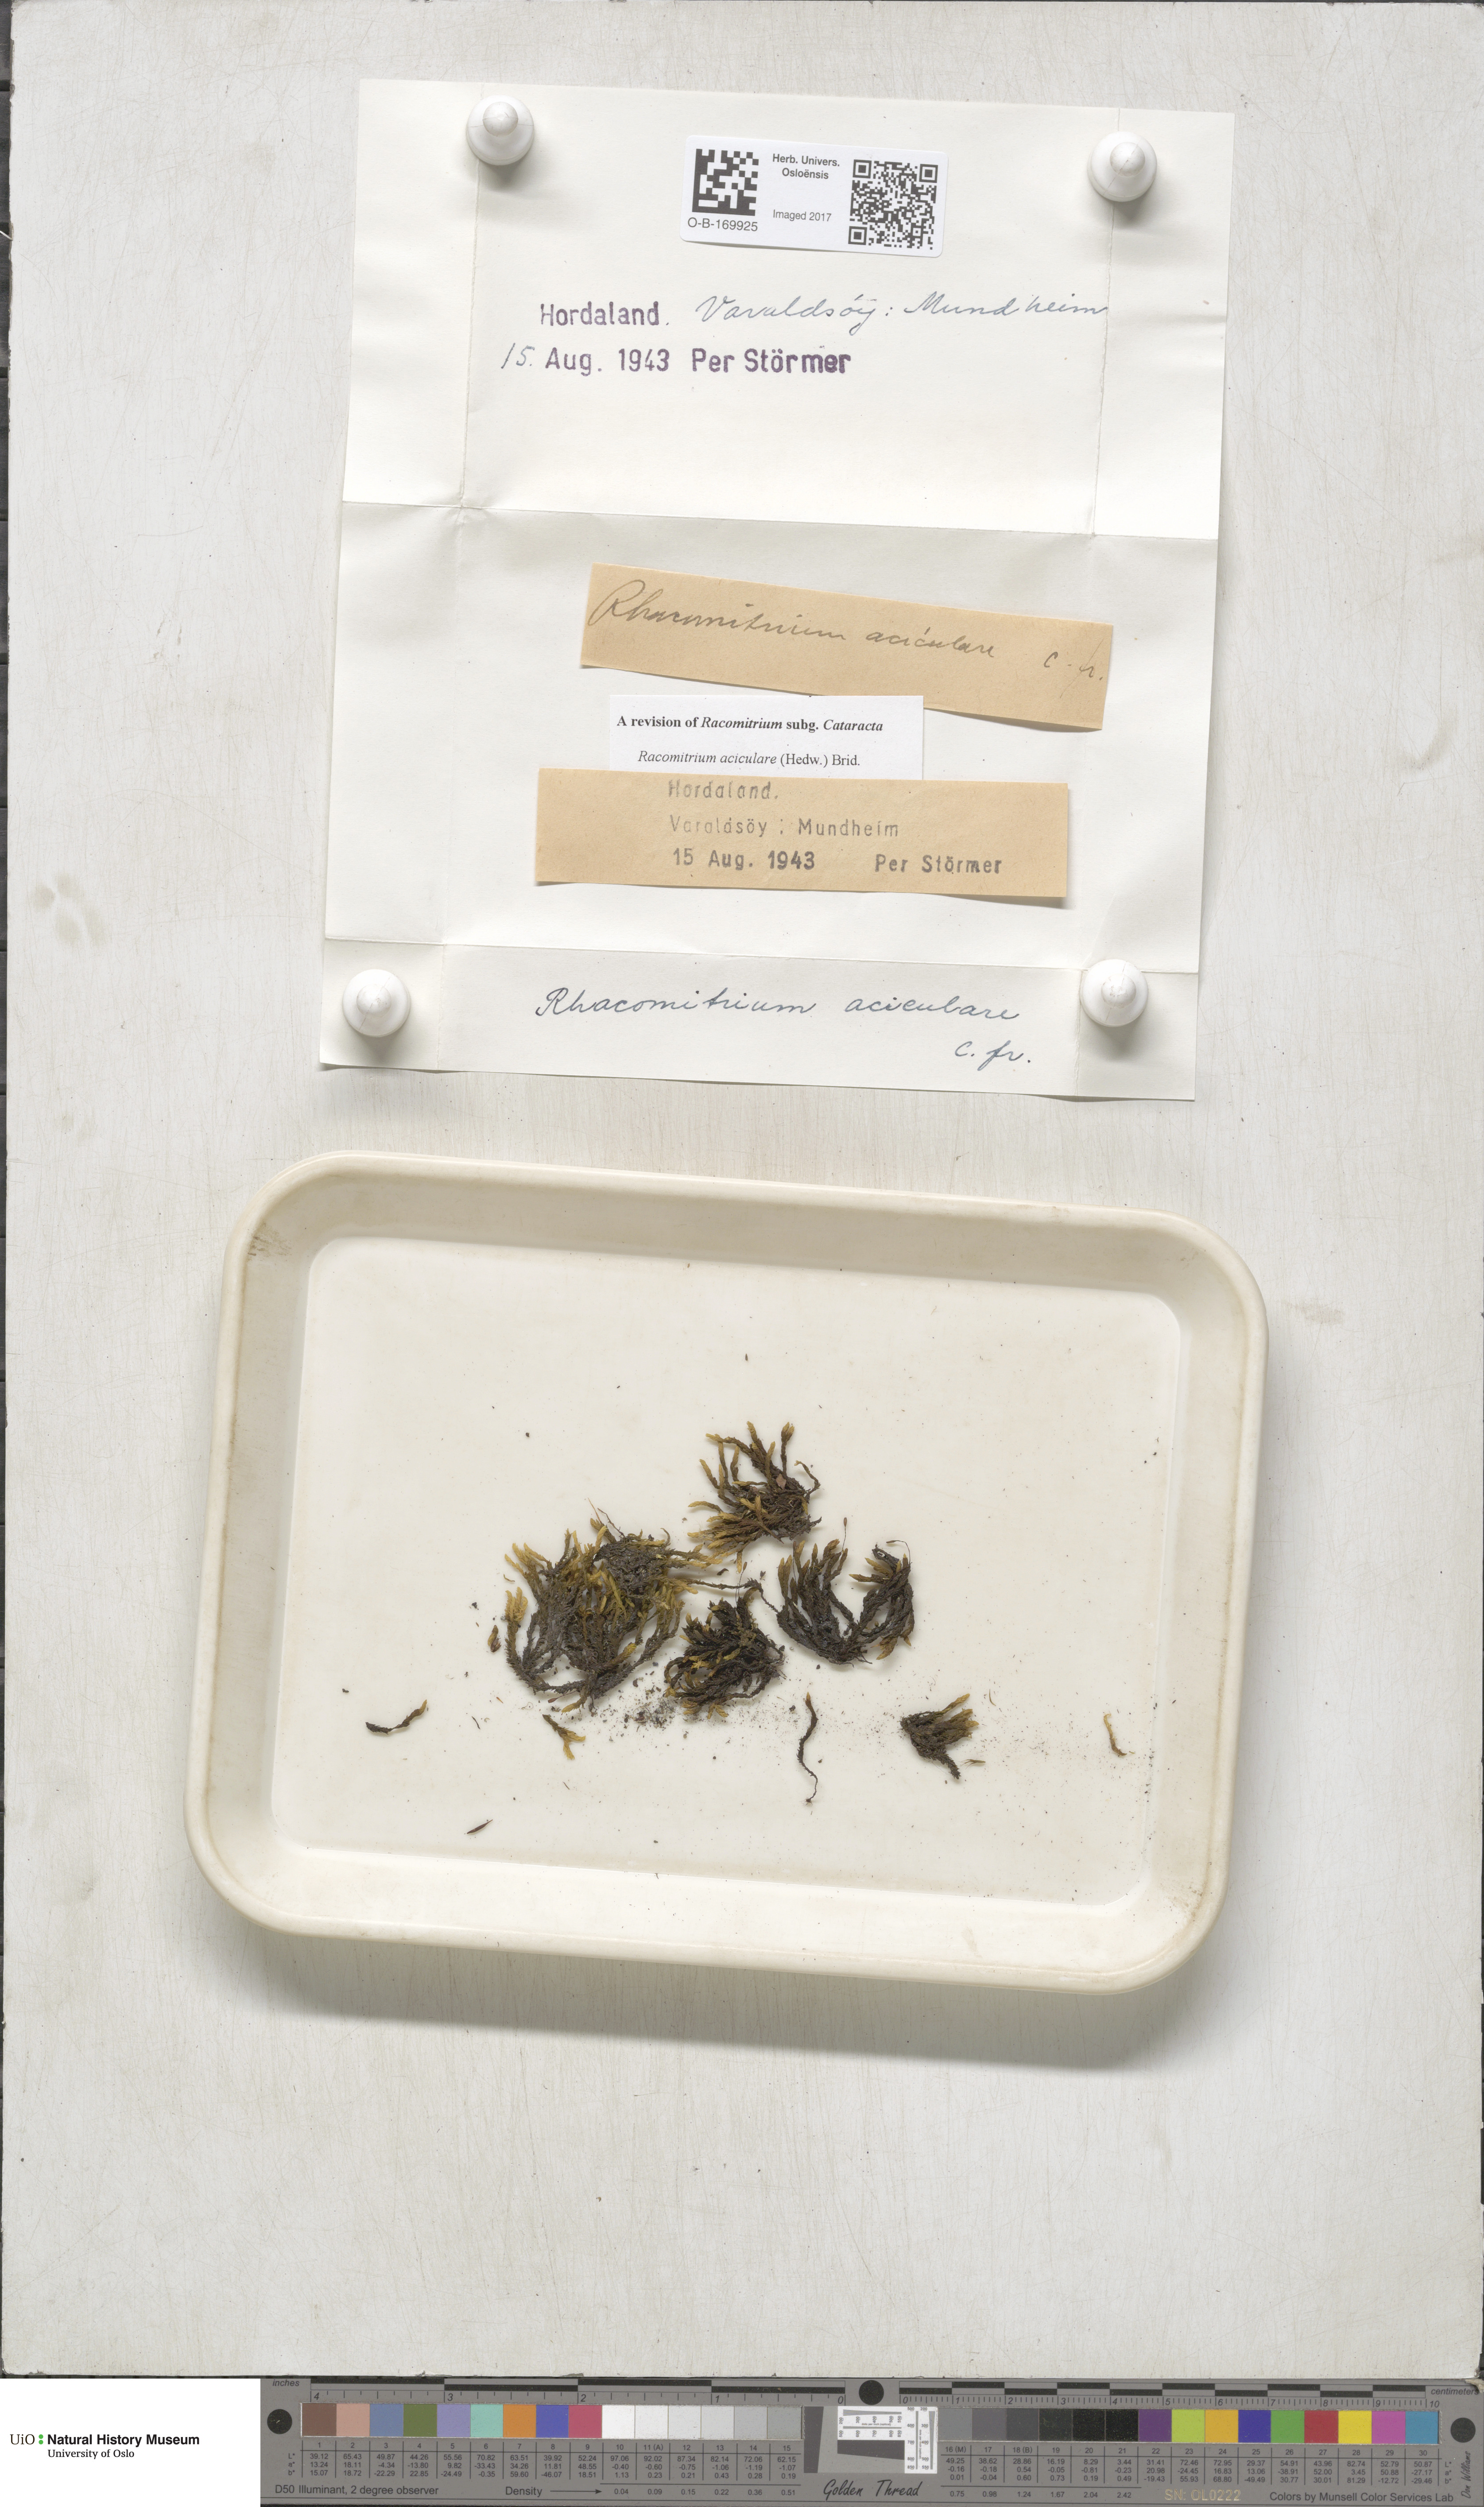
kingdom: Plantae
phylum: Bryophyta
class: Bryopsida
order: Grimmiales
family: Grimmiaceae
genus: Codriophorus
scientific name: Codriophorus acicularis
